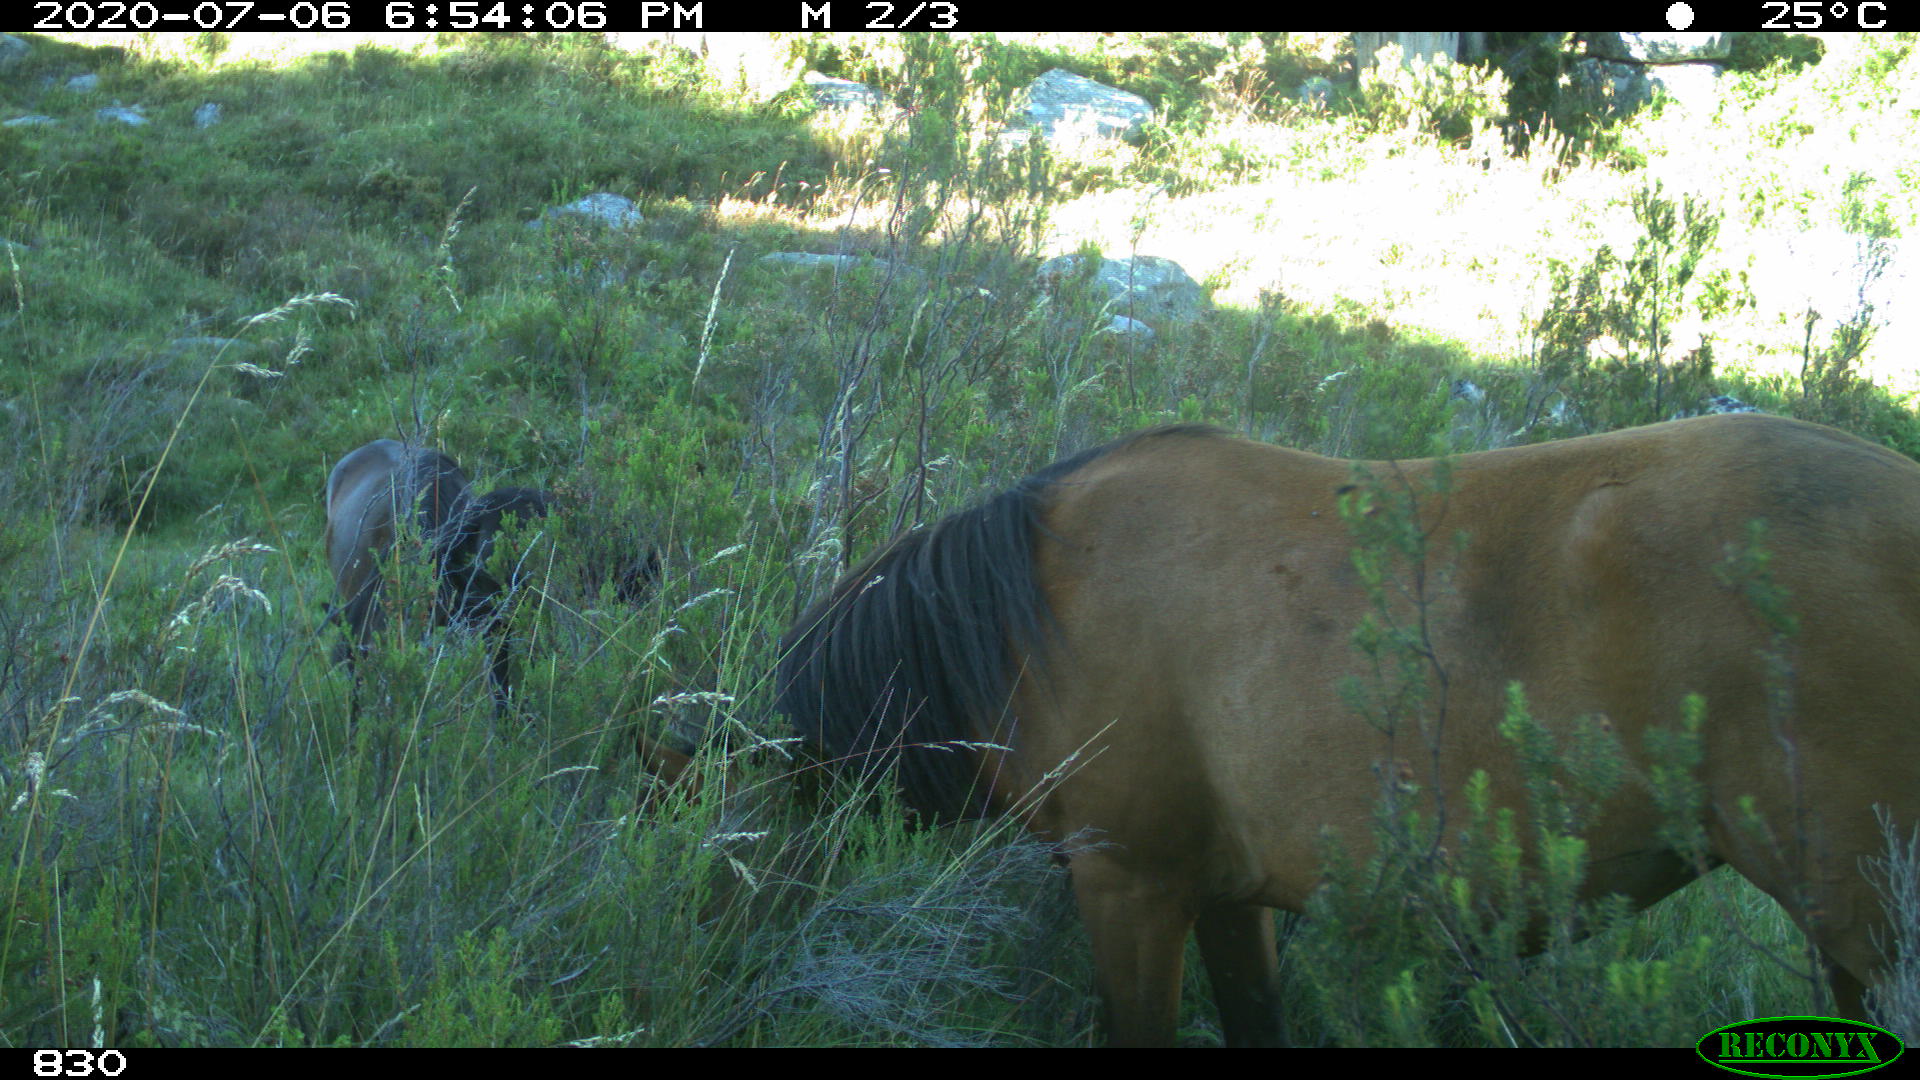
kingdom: Animalia
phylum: Chordata
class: Mammalia
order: Perissodactyla
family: Equidae
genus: Equus
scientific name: Equus caballus
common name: Horse
